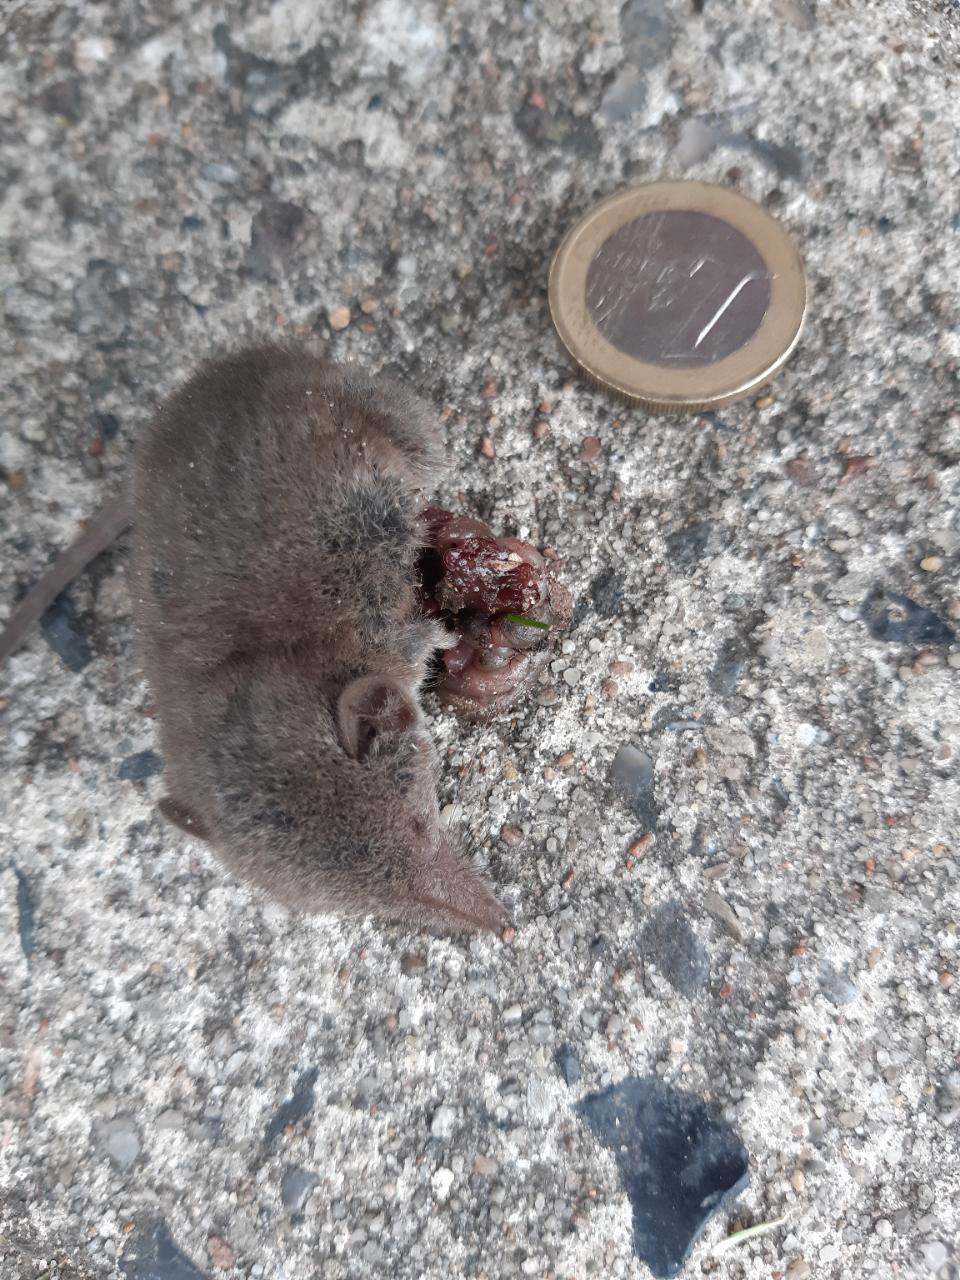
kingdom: Animalia
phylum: Chordata
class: Mammalia
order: Soricomorpha
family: Soricidae
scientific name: Soricidae
